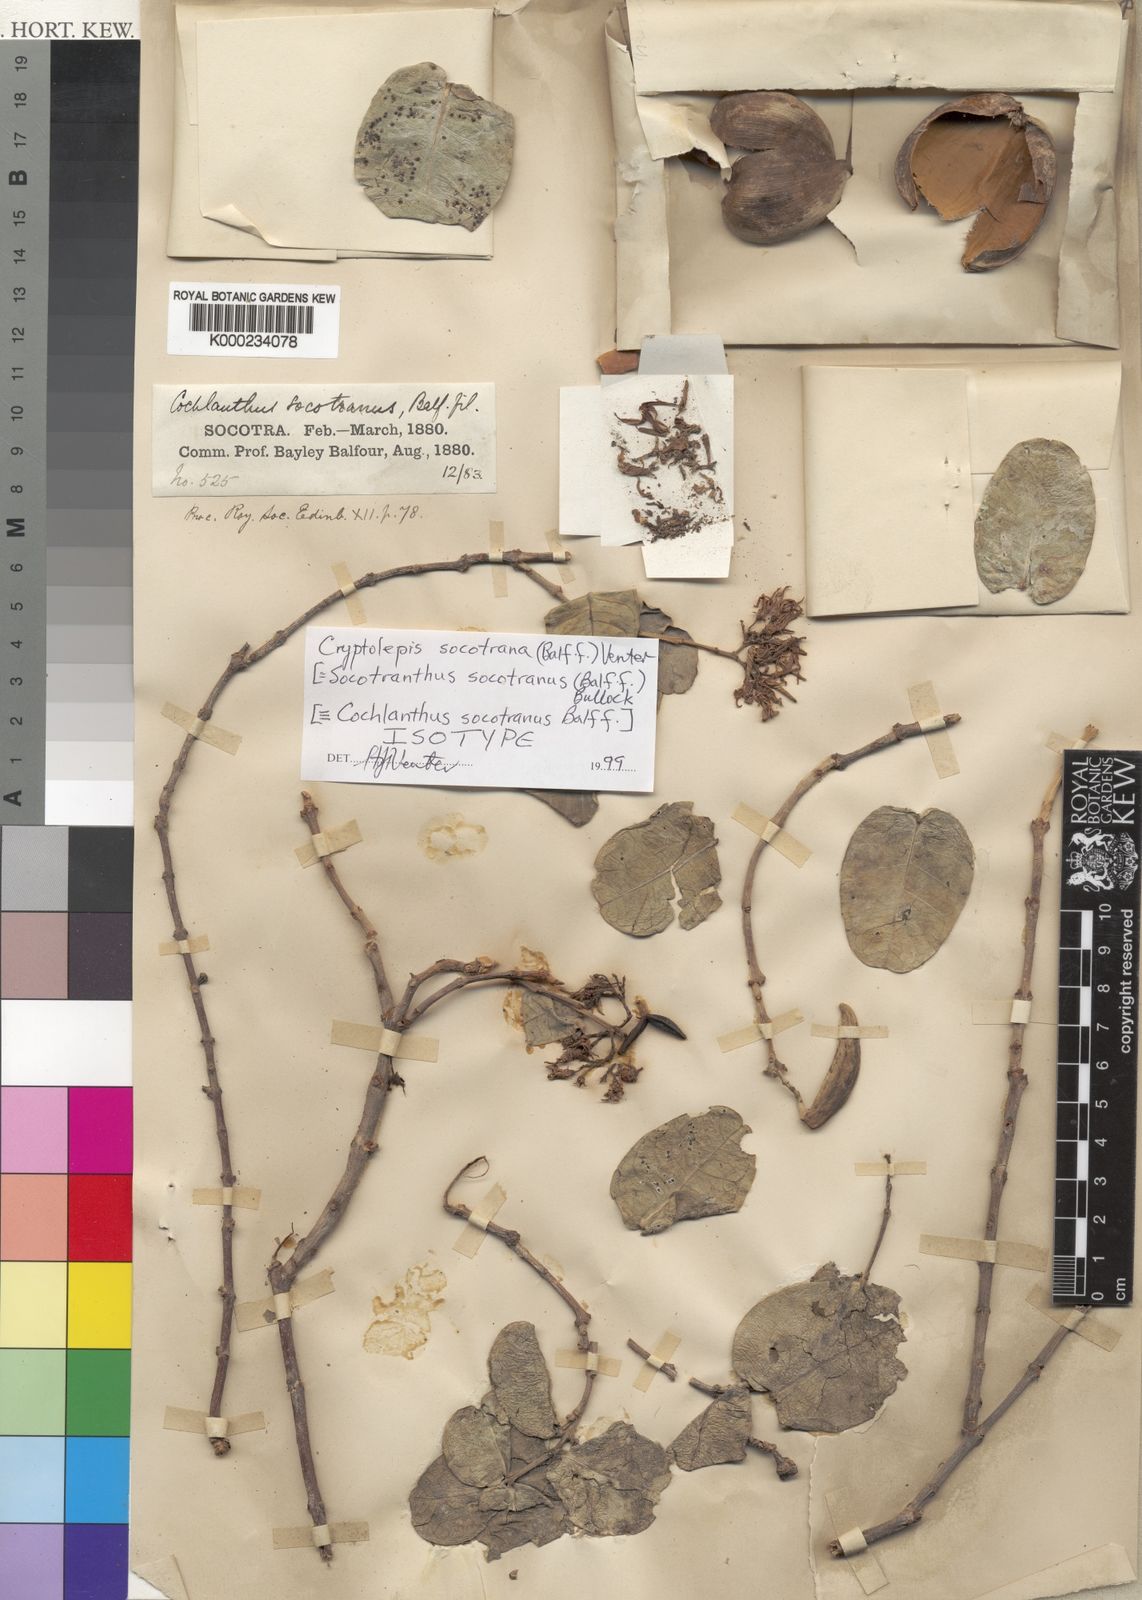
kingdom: Plantae
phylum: Tracheophyta
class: Magnoliopsida
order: Gentianales
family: Apocynaceae
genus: Cryptolepis
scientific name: Cryptolepis socotrana
